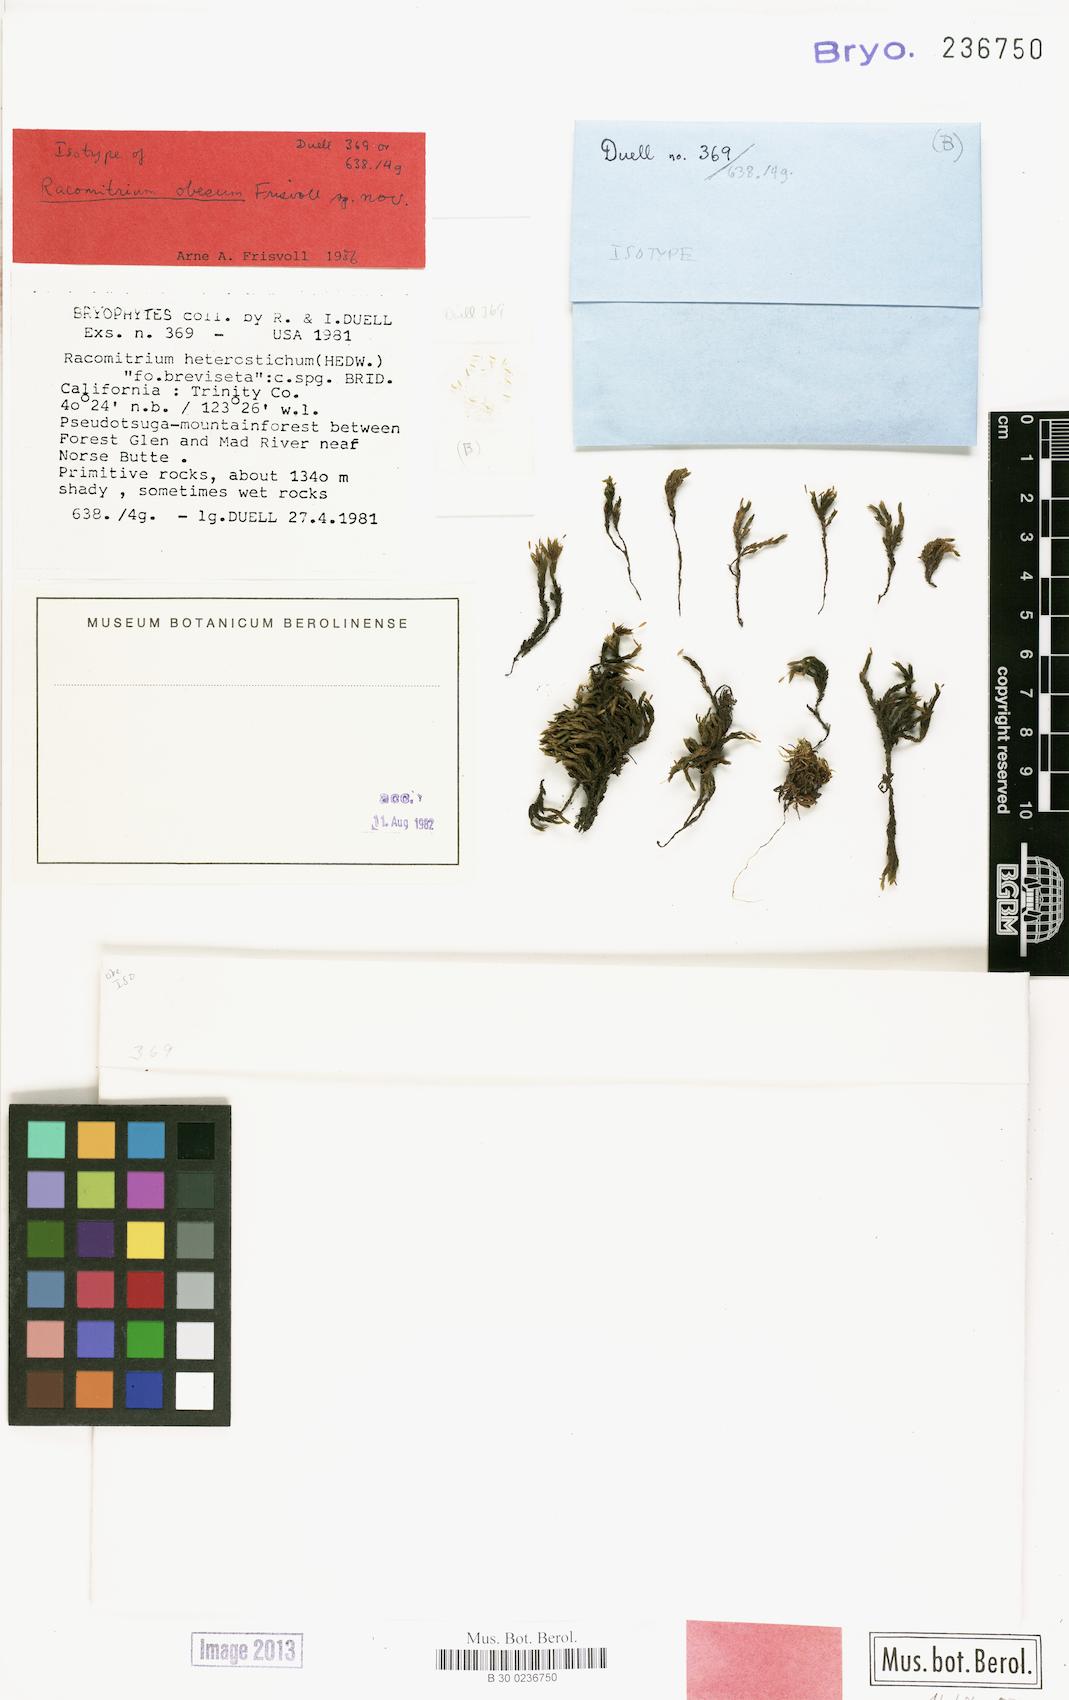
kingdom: Plantae
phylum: Bryophyta
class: Bryopsida
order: Grimmiales
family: Grimmiaceae
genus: Bucklandiella
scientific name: Bucklandiella obesa
